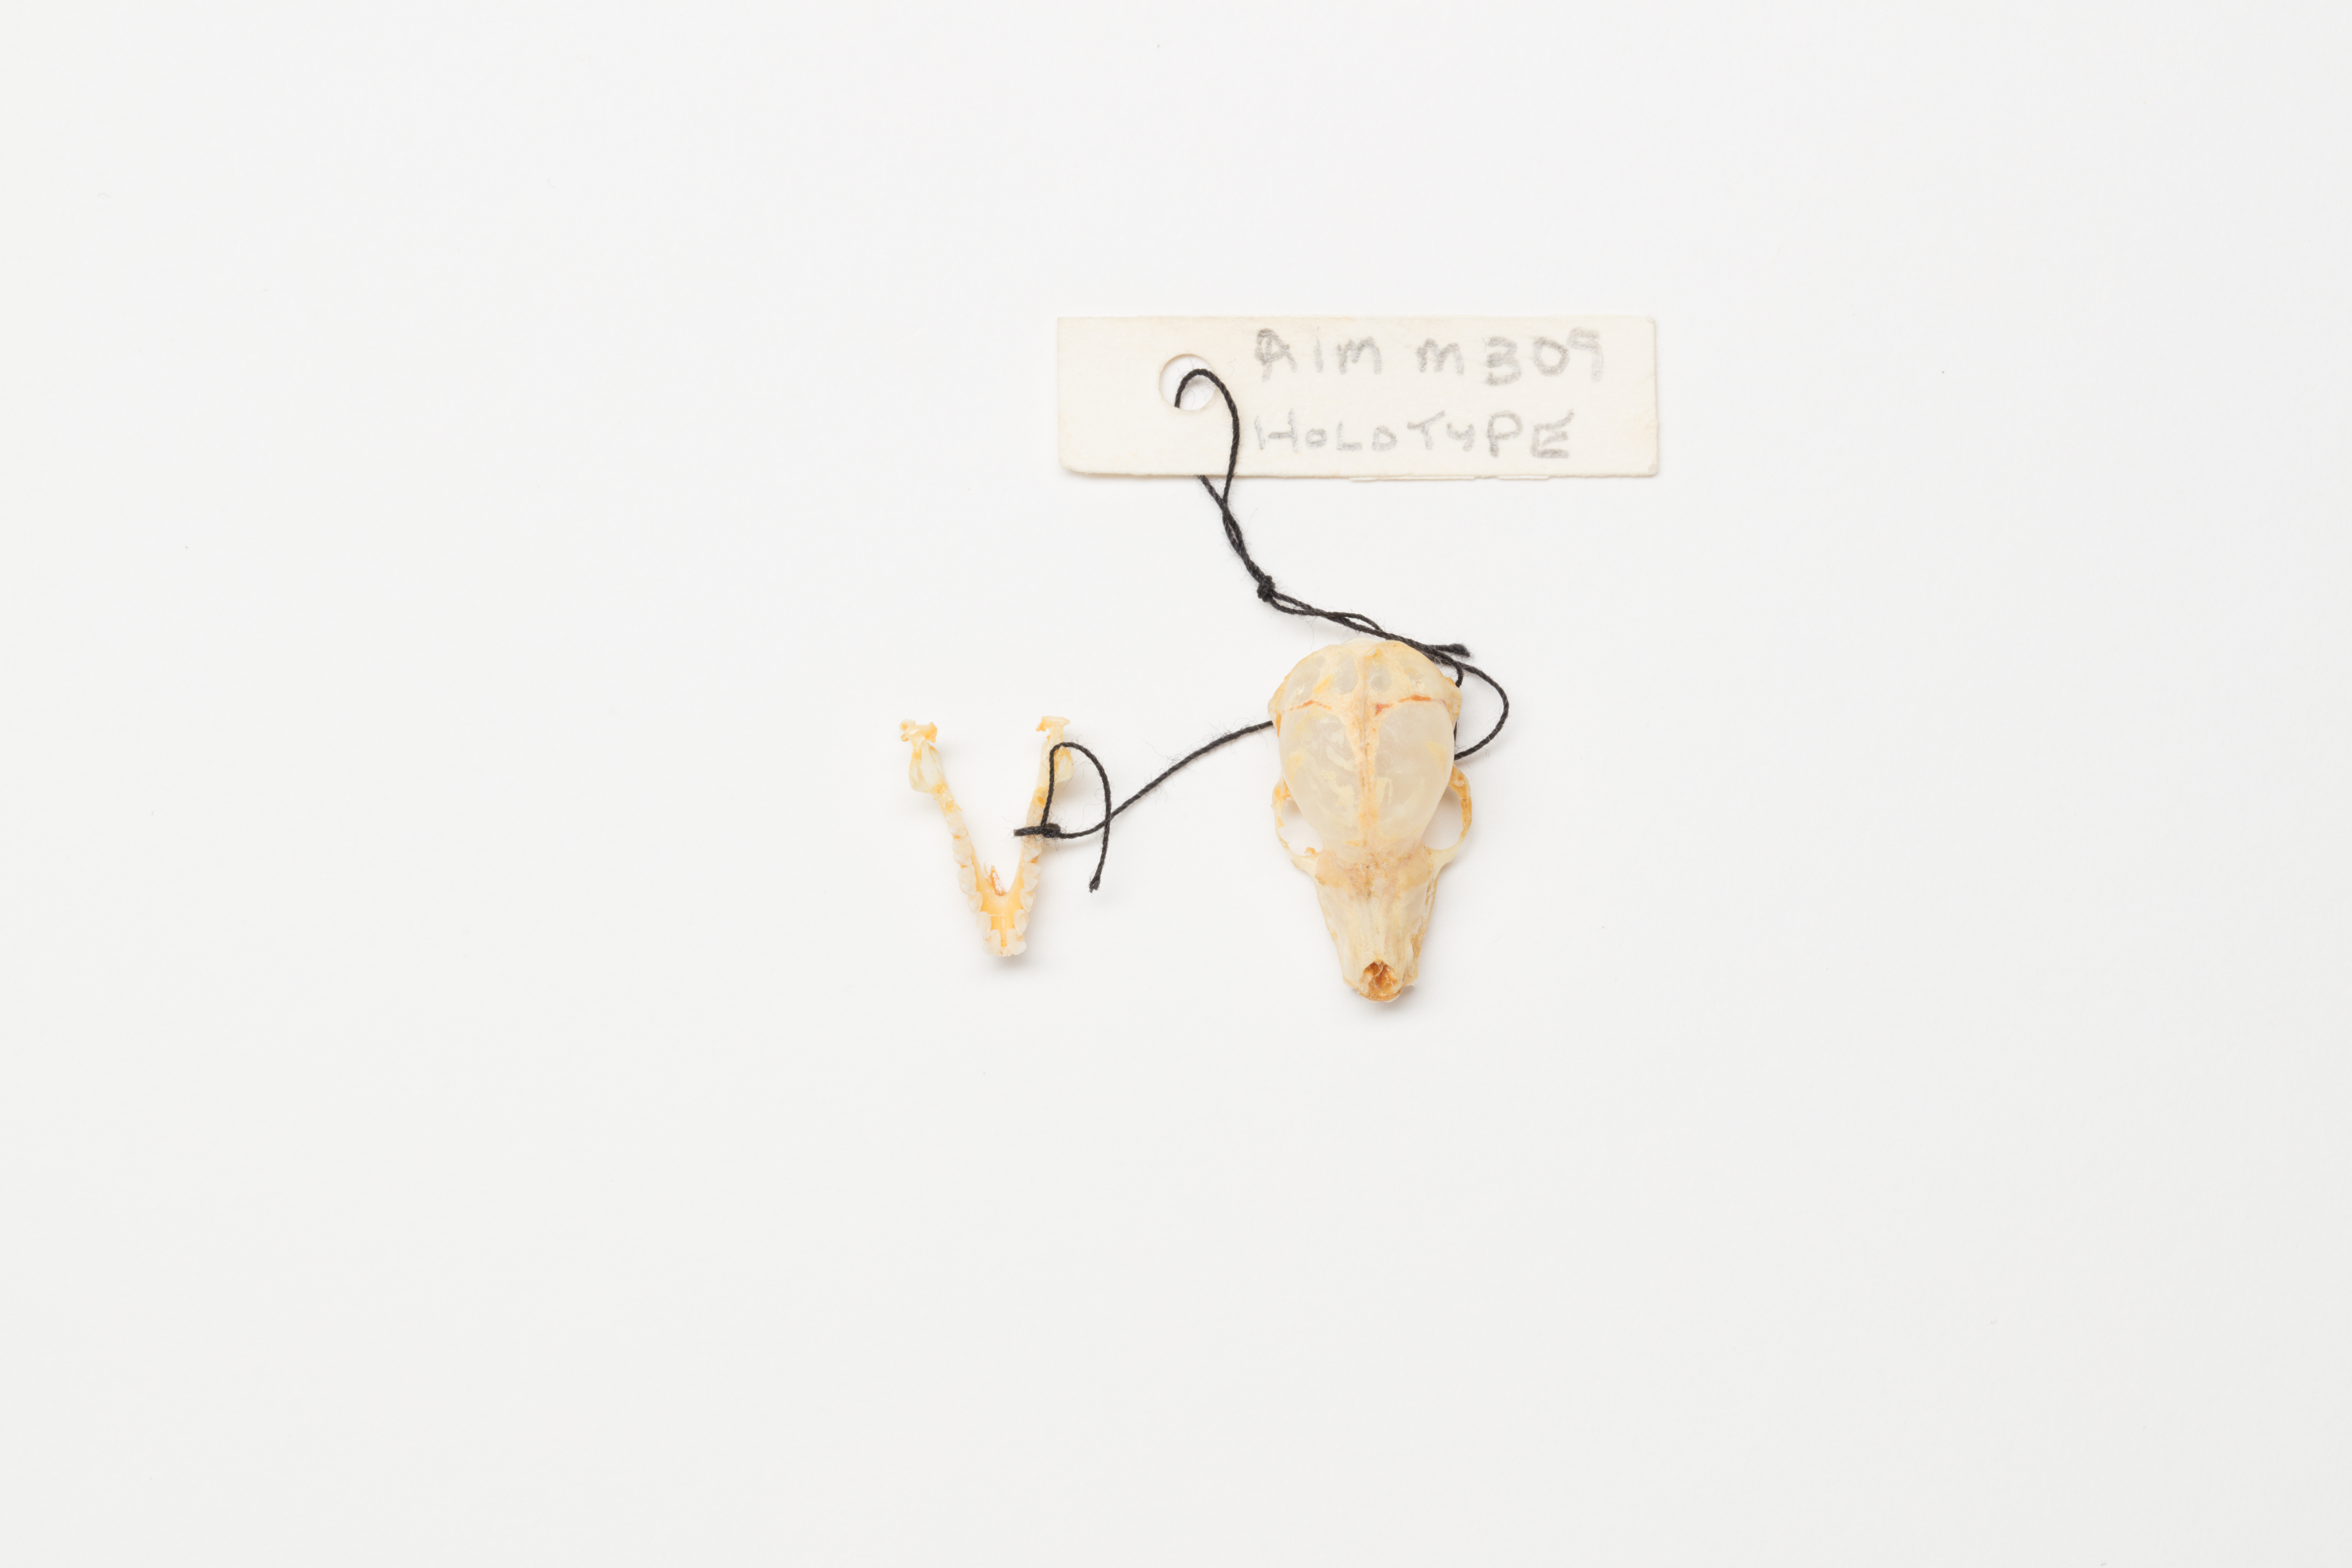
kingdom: Animalia
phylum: Chordata
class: Mammalia
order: Chiroptera
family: Mystacinidae
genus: Mystacina
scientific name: Mystacina tuberculata
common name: New zealand lesser short-tailed bat
